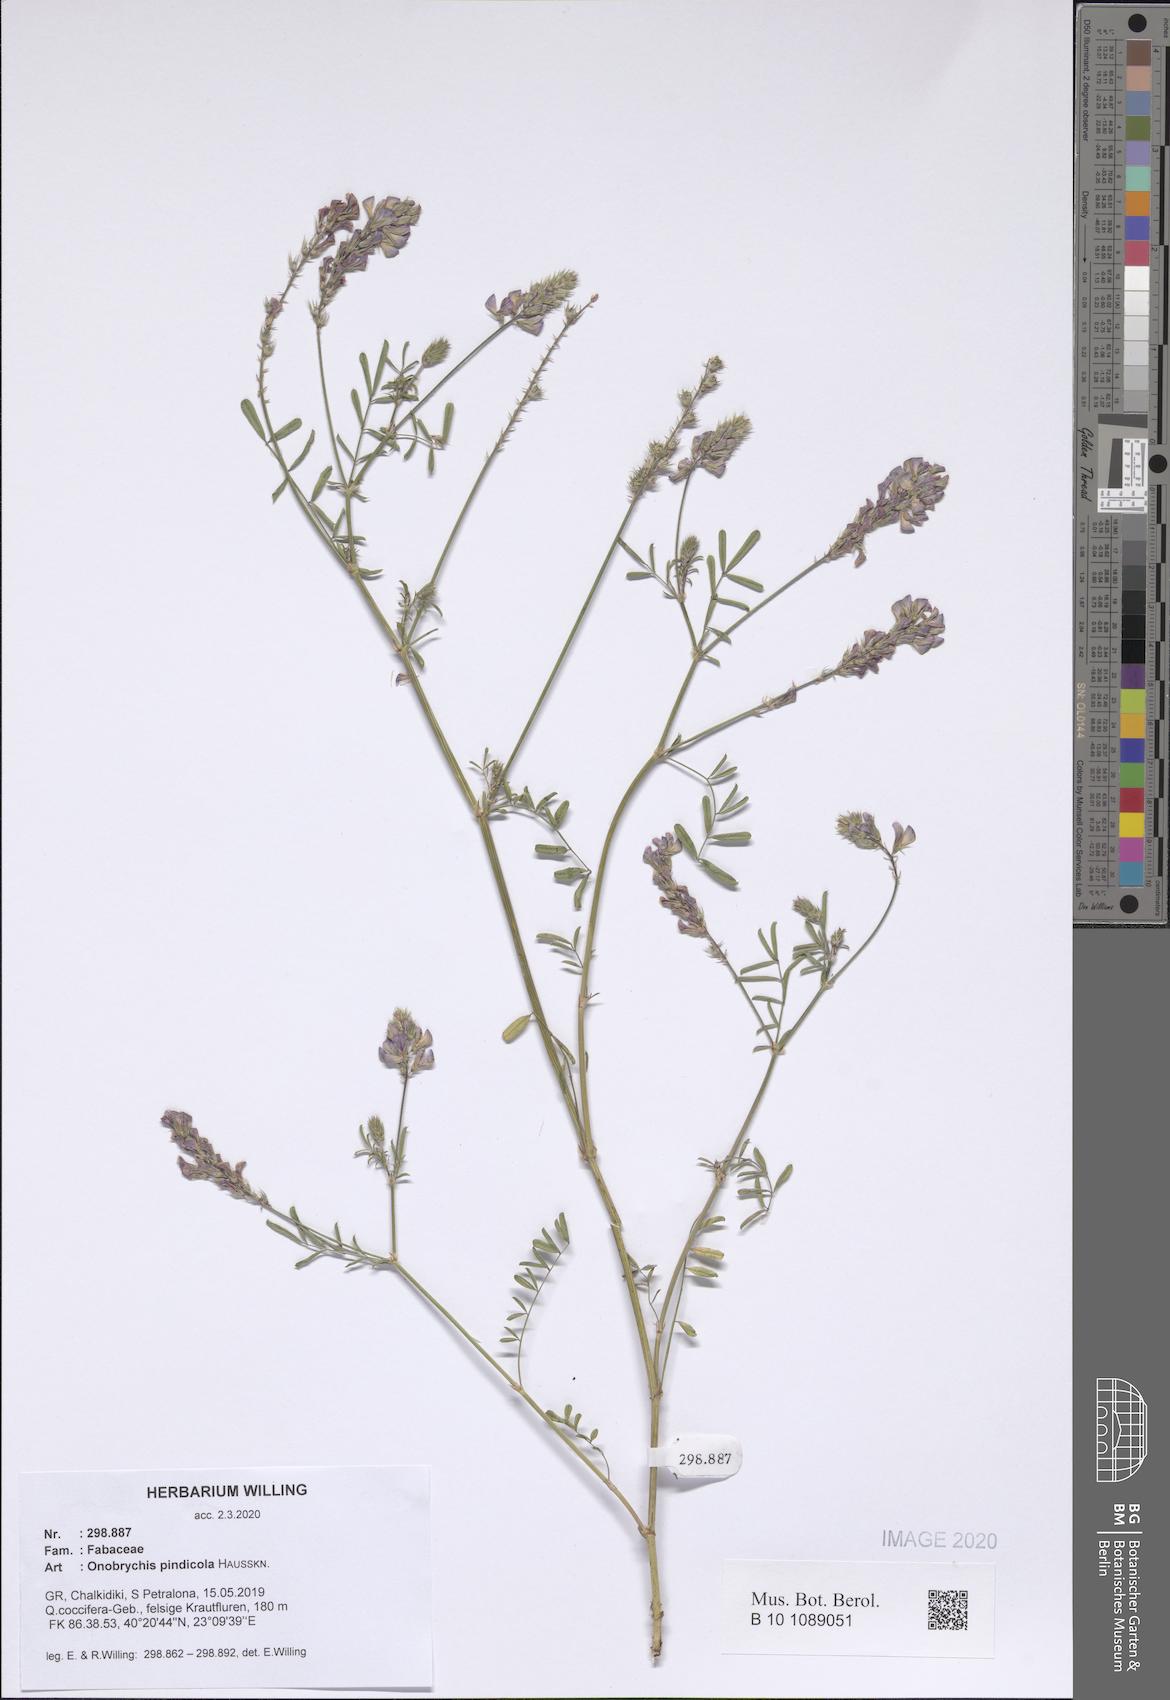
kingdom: Plantae
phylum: Tracheophyta
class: Magnoliopsida
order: Fabales
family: Fabaceae
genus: Onobrychis
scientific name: Onobrychis pindicola
